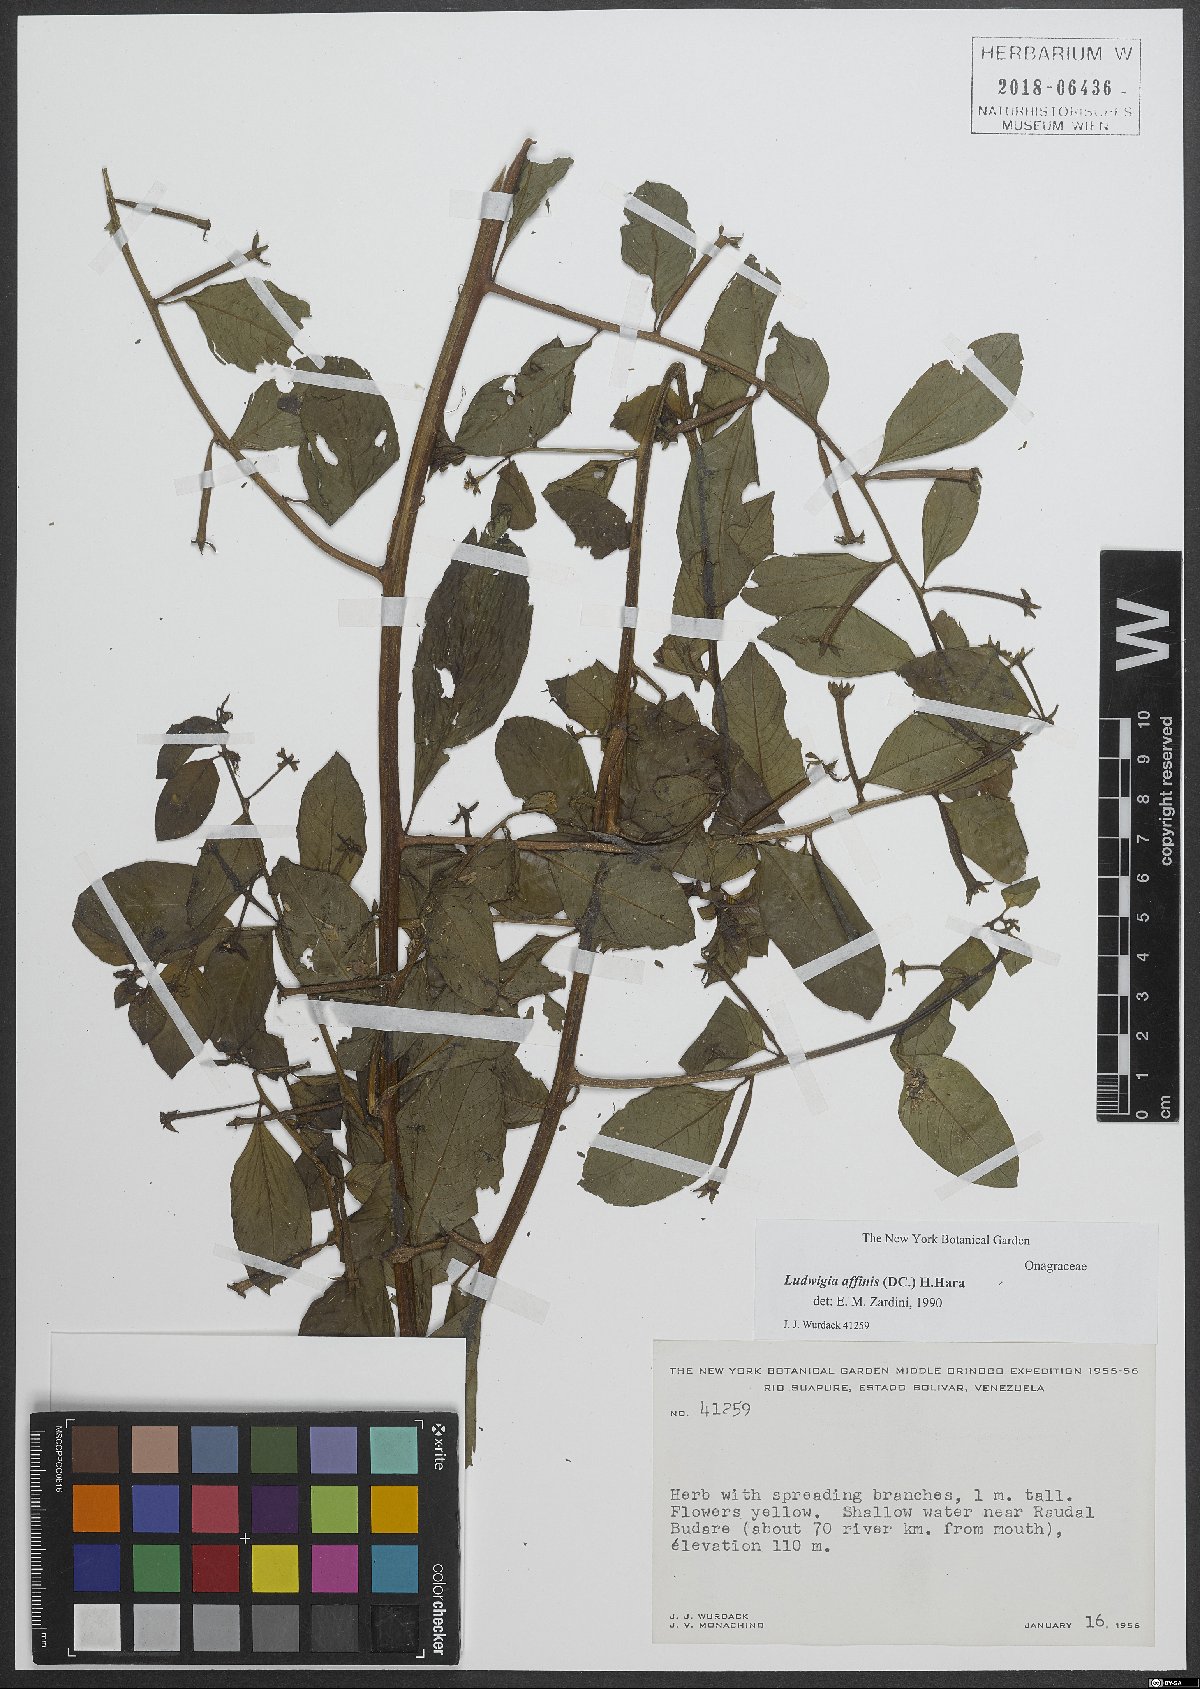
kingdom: Plantae
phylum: Tracheophyta
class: Magnoliopsida
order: Myrtales
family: Onagraceae
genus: Ludwigia
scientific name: Ludwigia affinis
